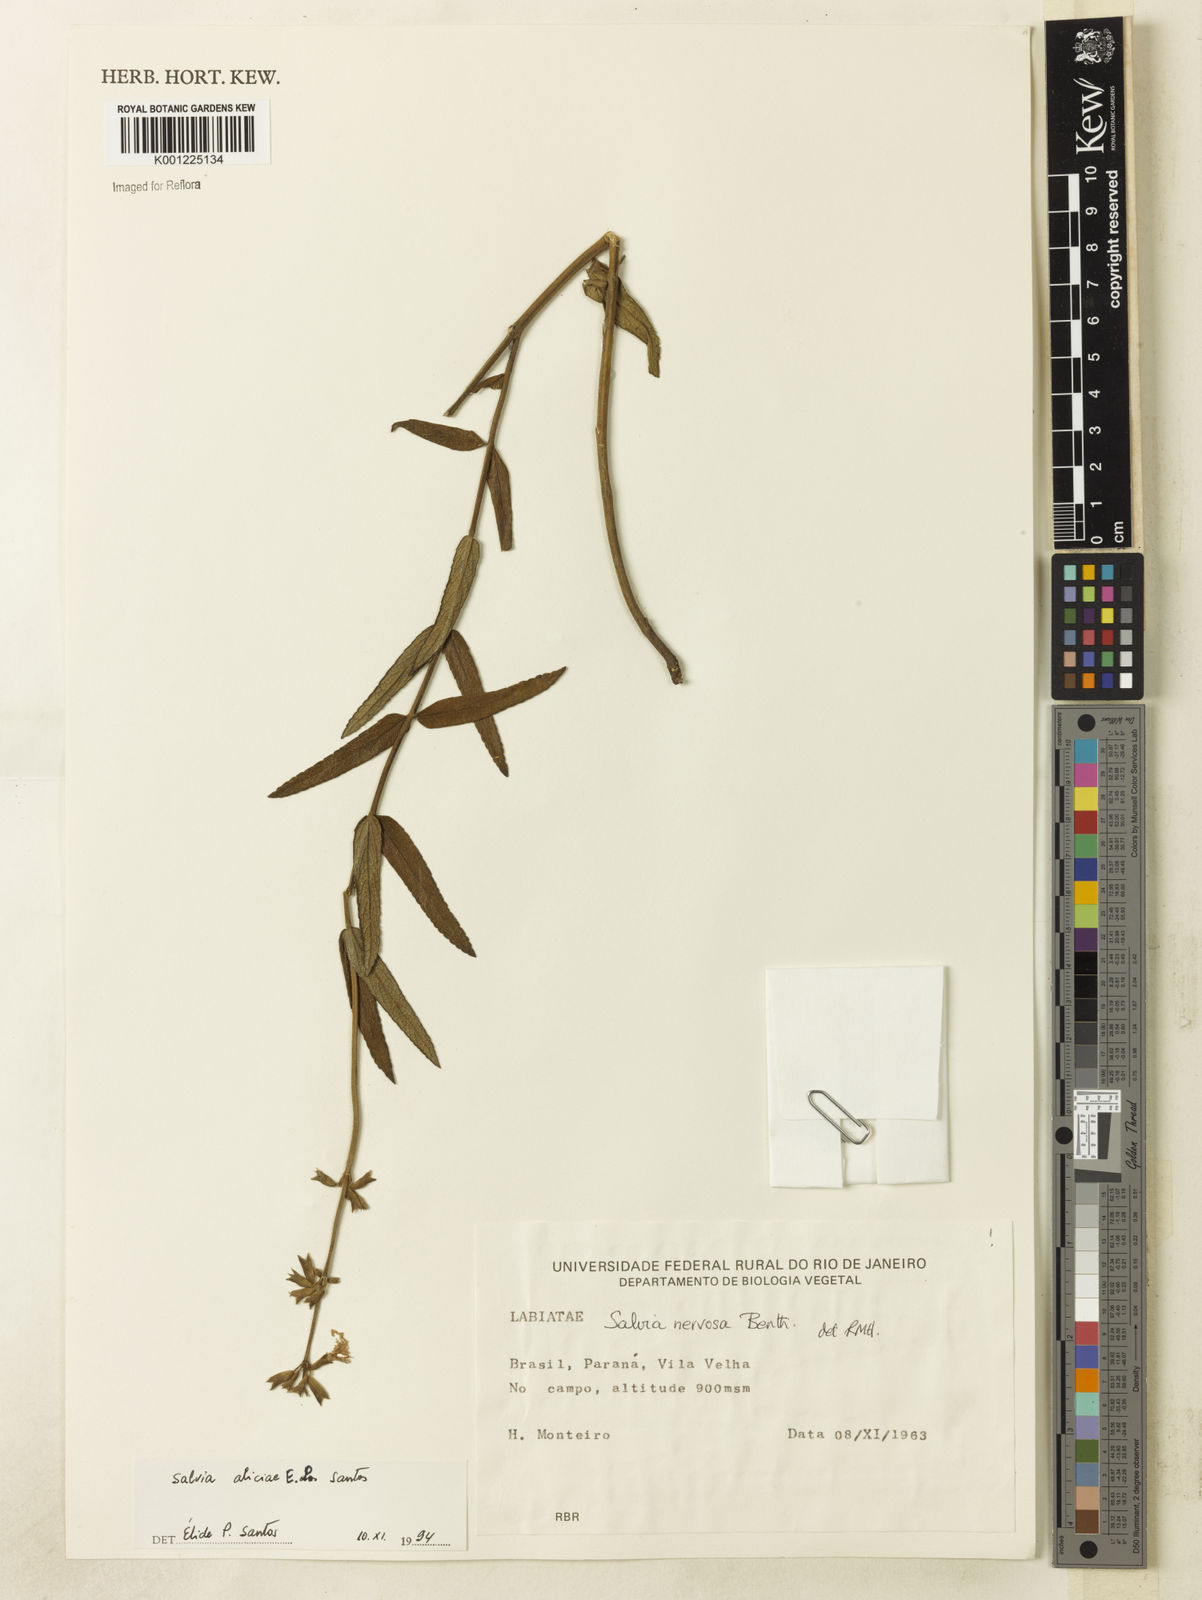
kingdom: Plantae
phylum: Tracheophyta
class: Magnoliopsida
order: Lamiales
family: Lamiaceae
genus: Salvia
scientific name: Salvia aliciae
